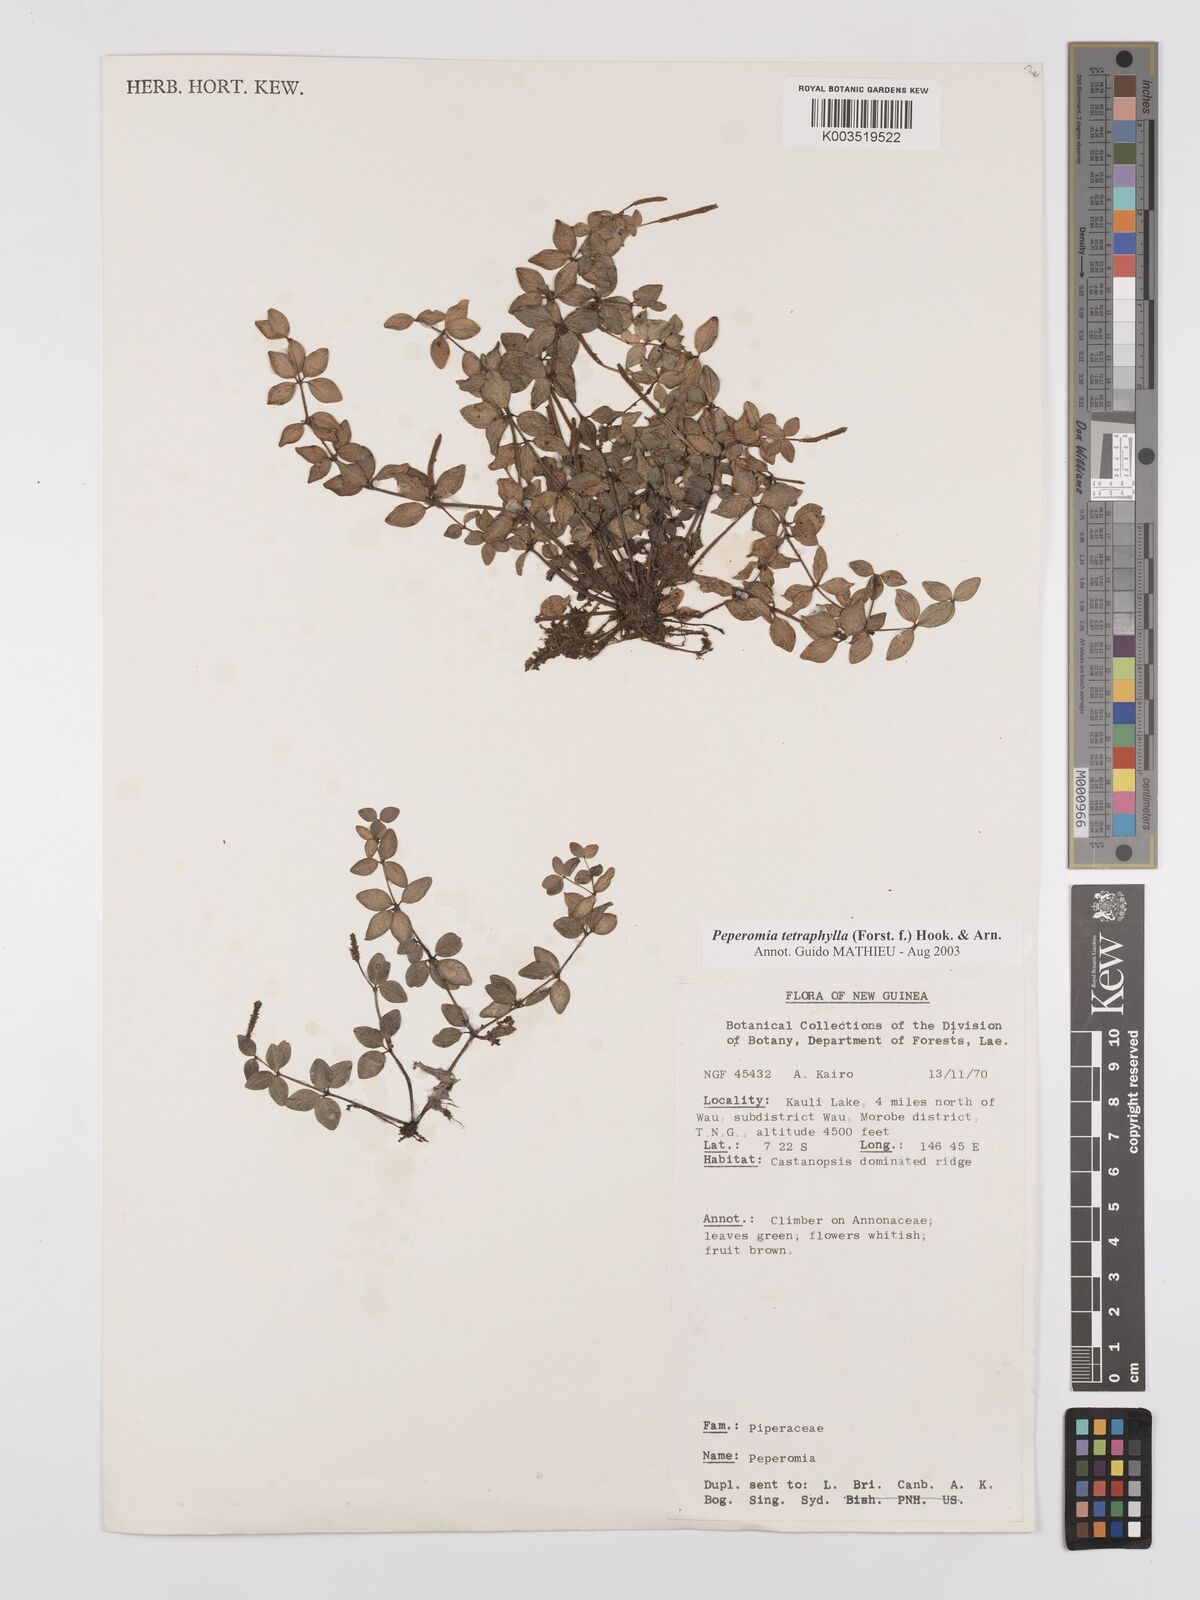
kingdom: Plantae
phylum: Tracheophyta
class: Magnoliopsida
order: Piperales
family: Piperaceae
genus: Peperomia
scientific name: Peperomia tetraphylla
